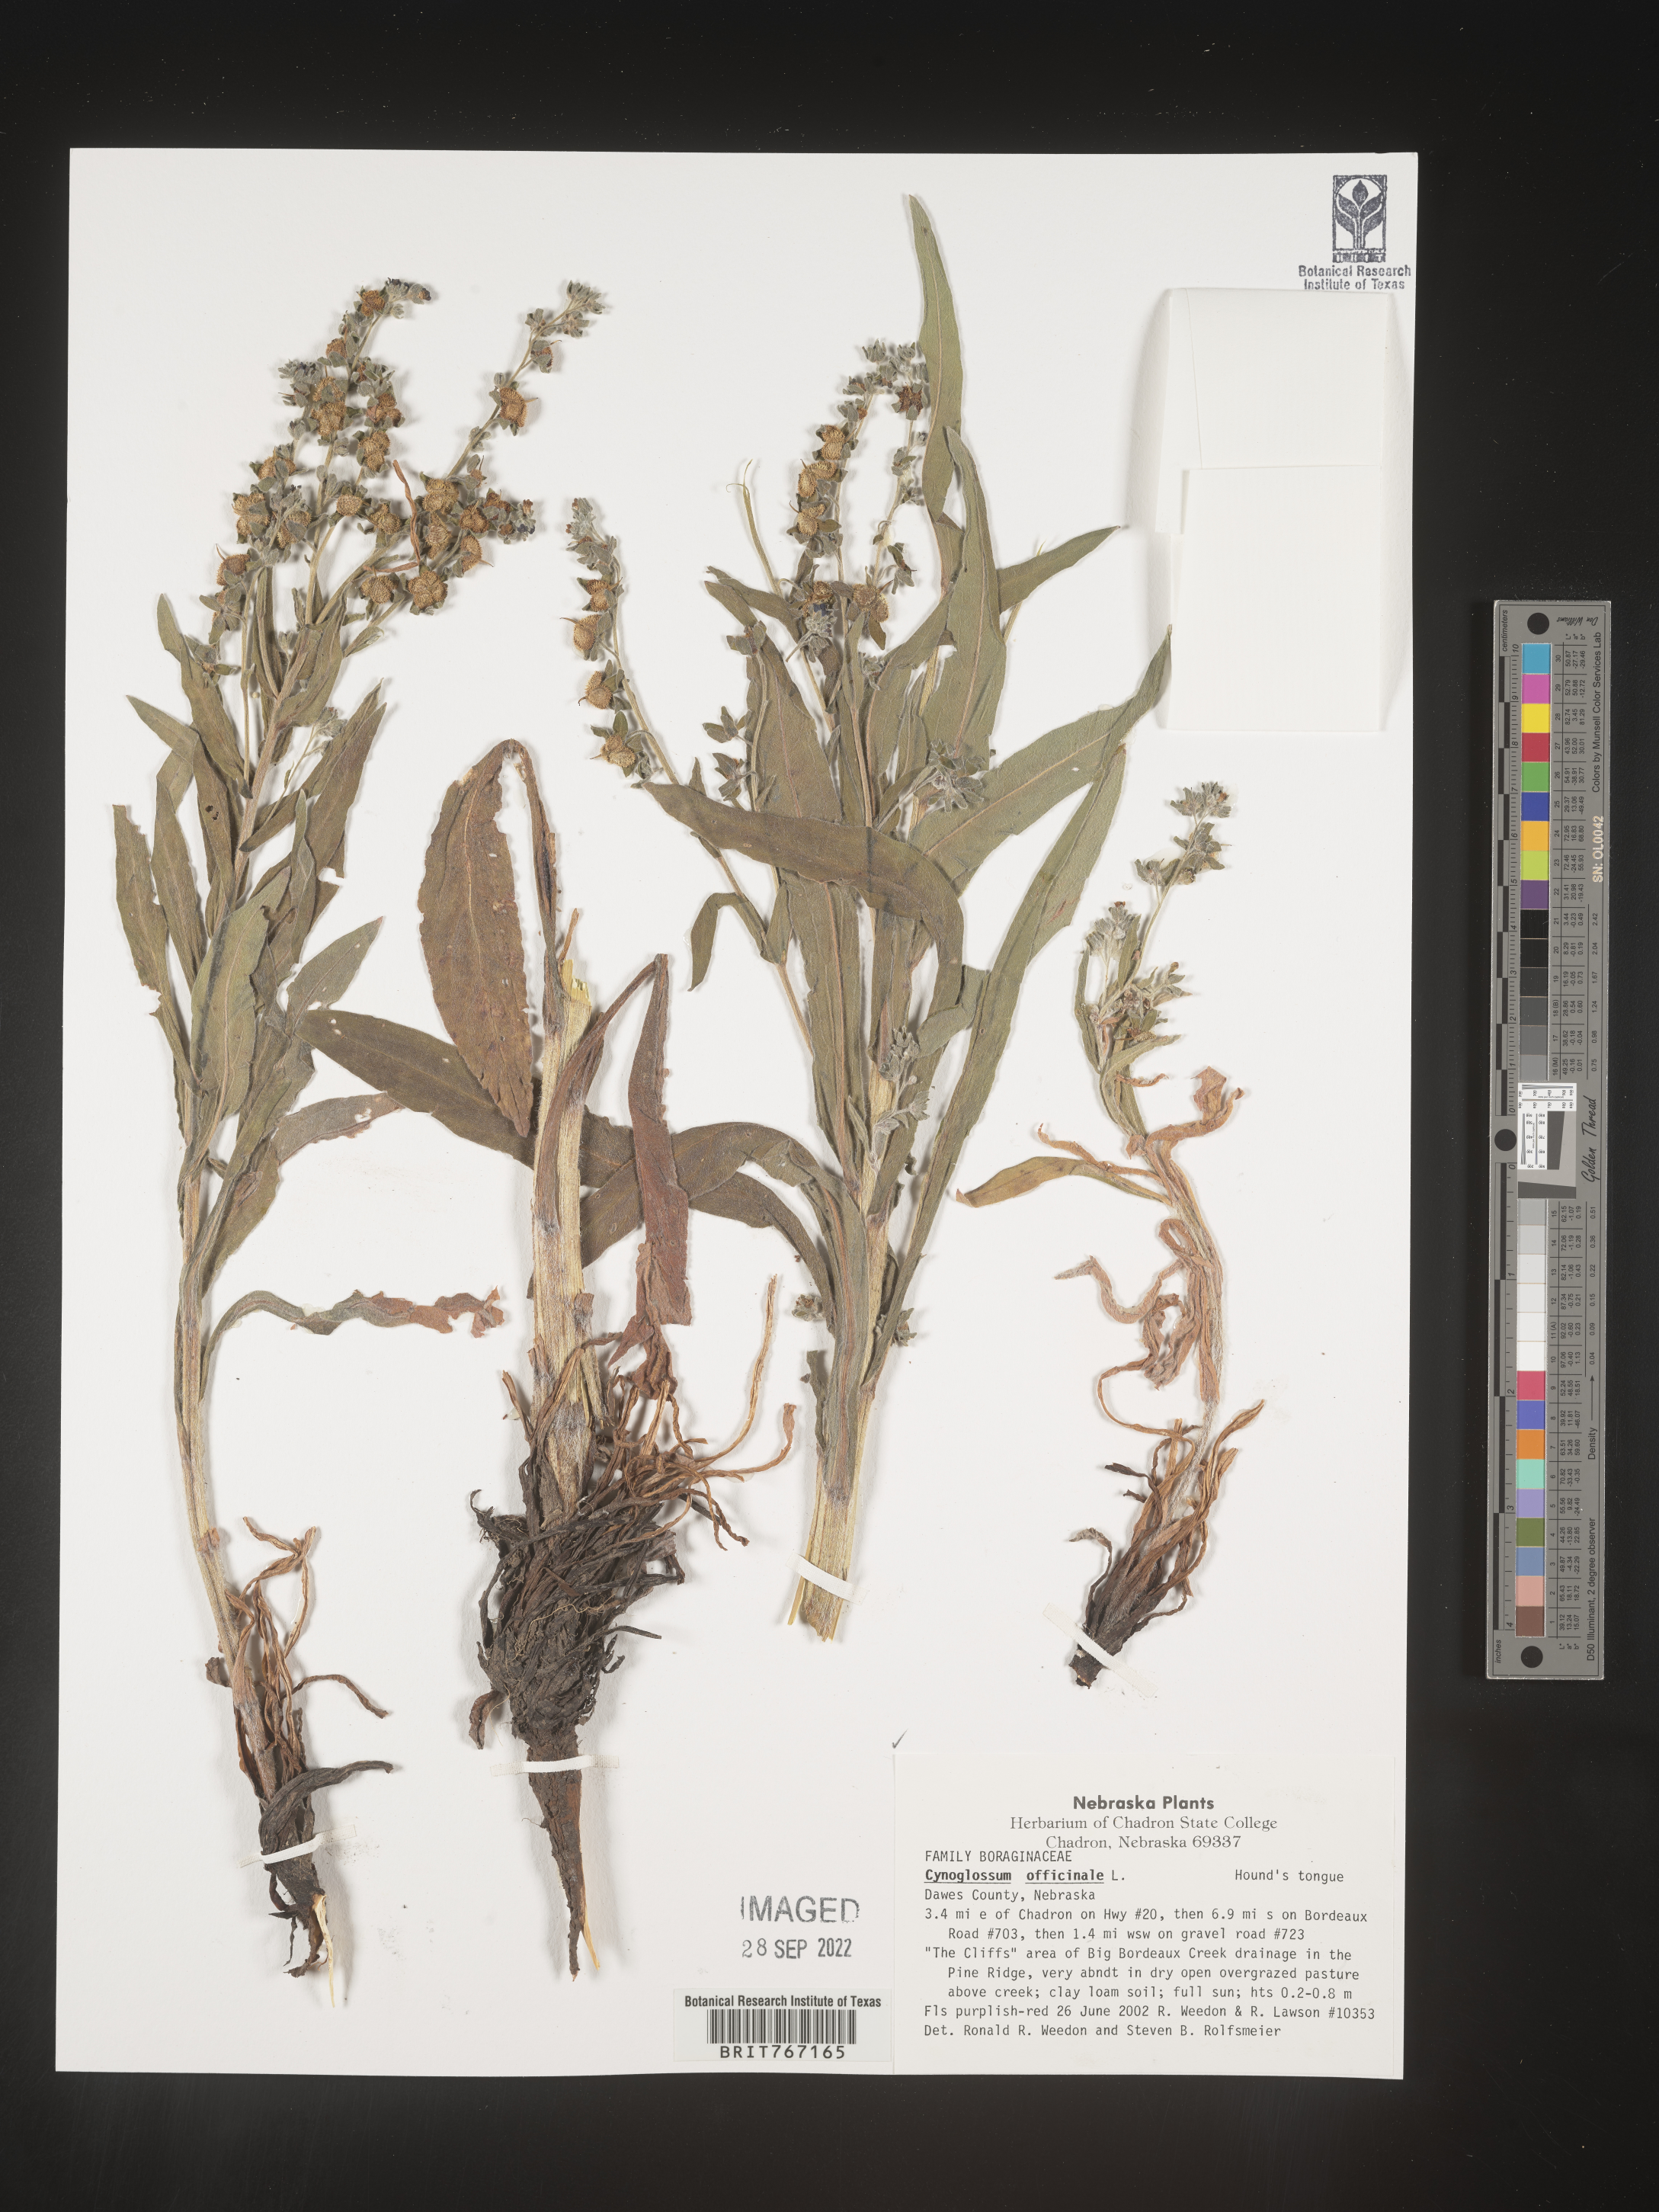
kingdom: Plantae
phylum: Tracheophyta
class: Magnoliopsida
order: Boraginales
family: Boraginaceae
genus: Cynoglossum
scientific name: Cynoglossum officinale
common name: Hound's-tongue
